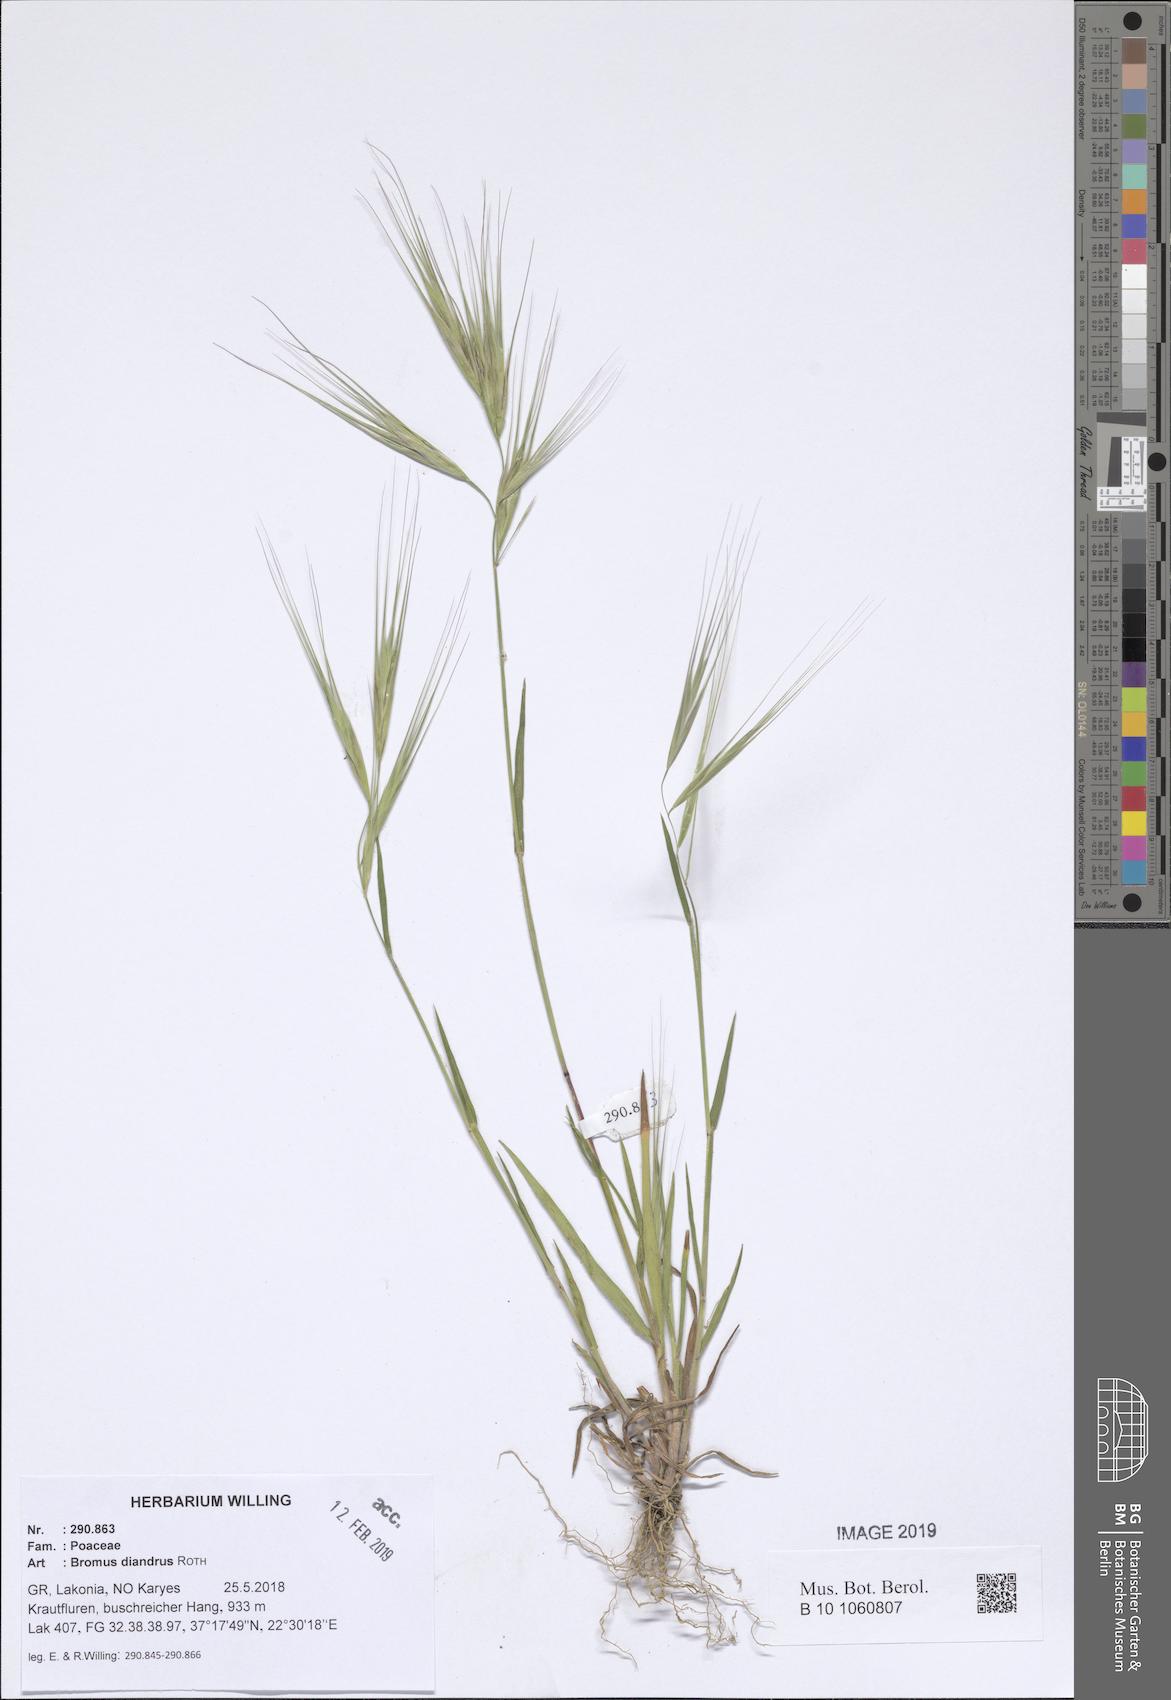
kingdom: Plantae
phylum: Tracheophyta
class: Liliopsida
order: Poales
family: Poaceae
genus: Bromus
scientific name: Bromus diandrus
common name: Ripgut brome
